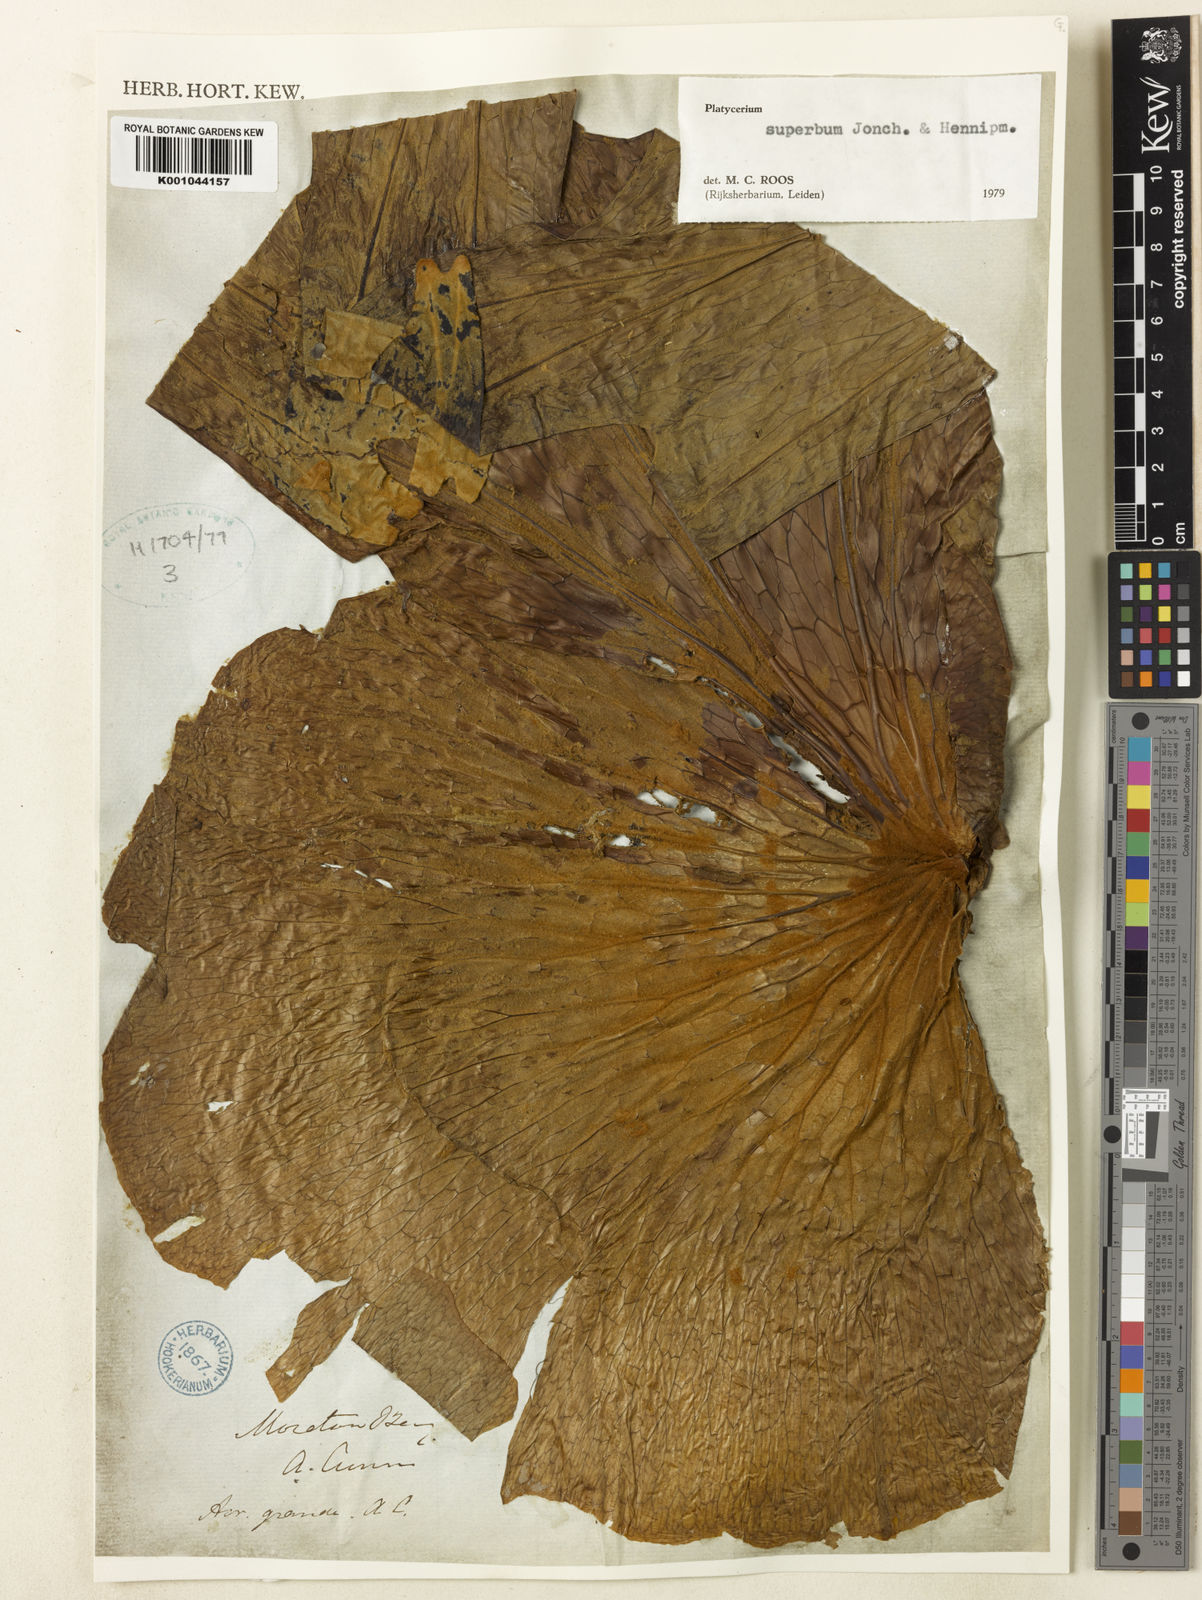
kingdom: Plantae
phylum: Tracheophyta
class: Polypodiopsida
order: Polypodiales
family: Polypodiaceae
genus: Platycerium
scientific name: Platycerium superbum
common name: Staghorn fern
